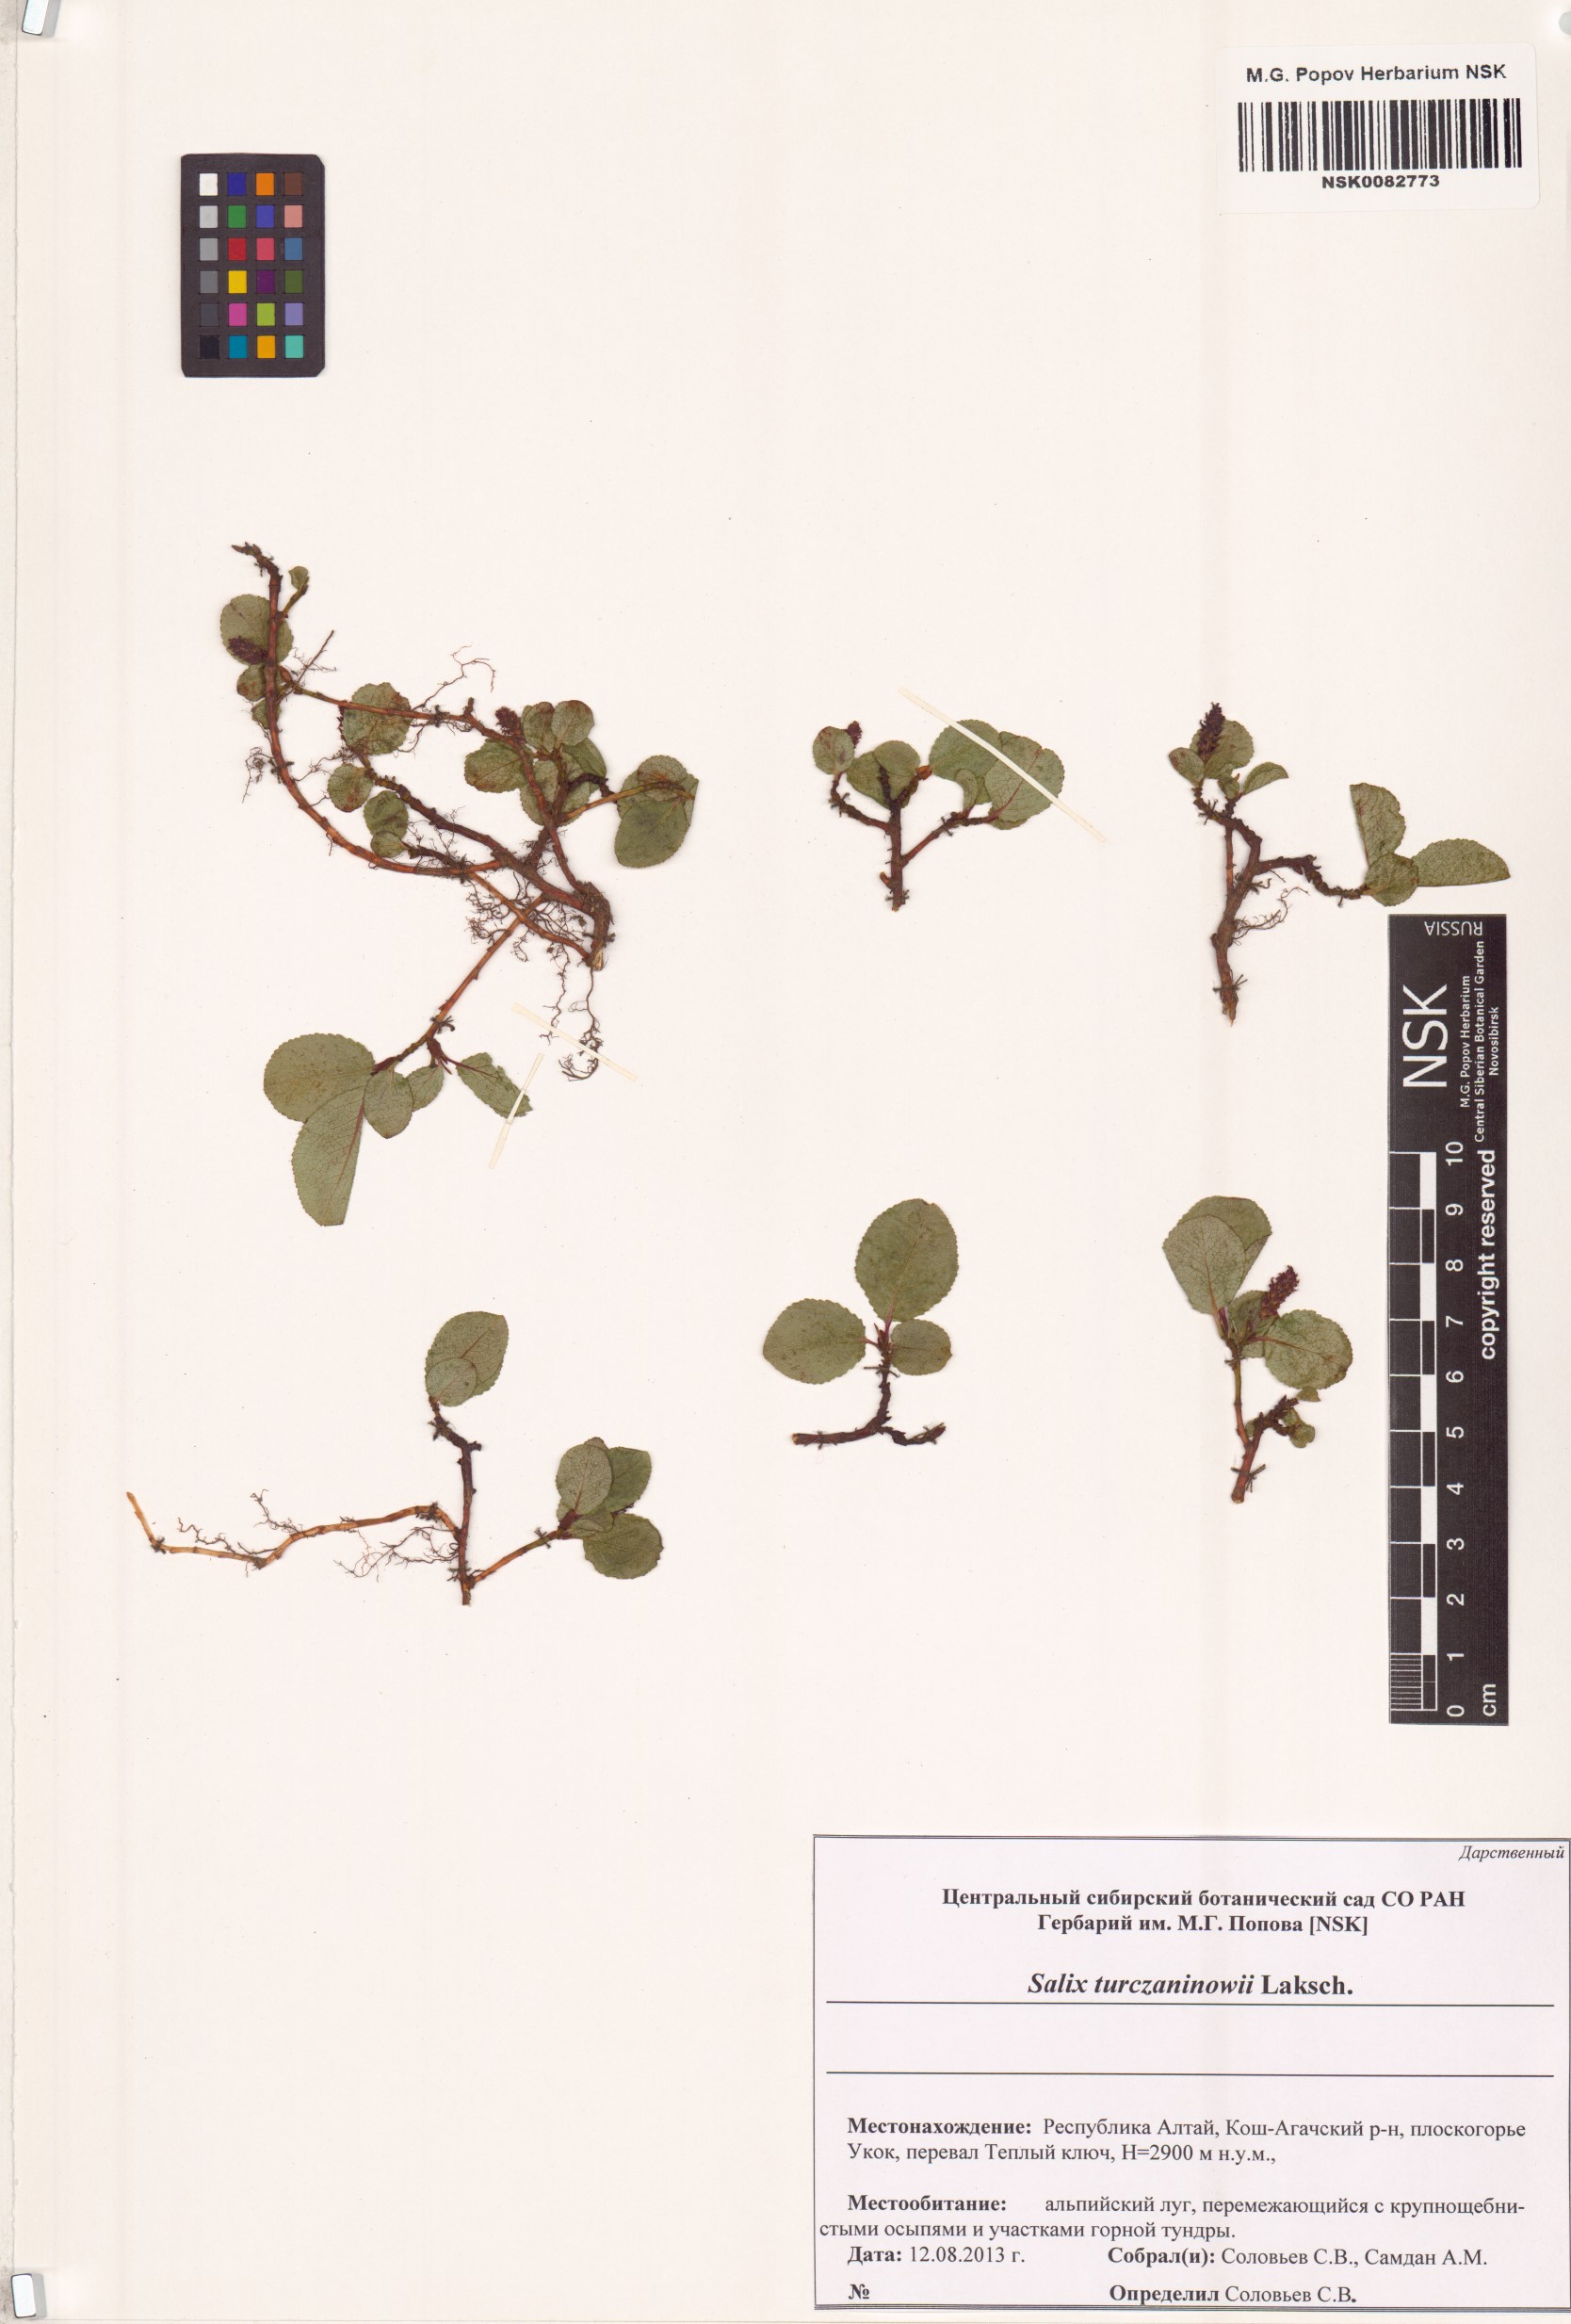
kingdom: Plantae
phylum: Tracheophyta
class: Magnoliopsida
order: Malpighiales
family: Salicaceae
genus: Salix
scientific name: Salix turczaninowii
